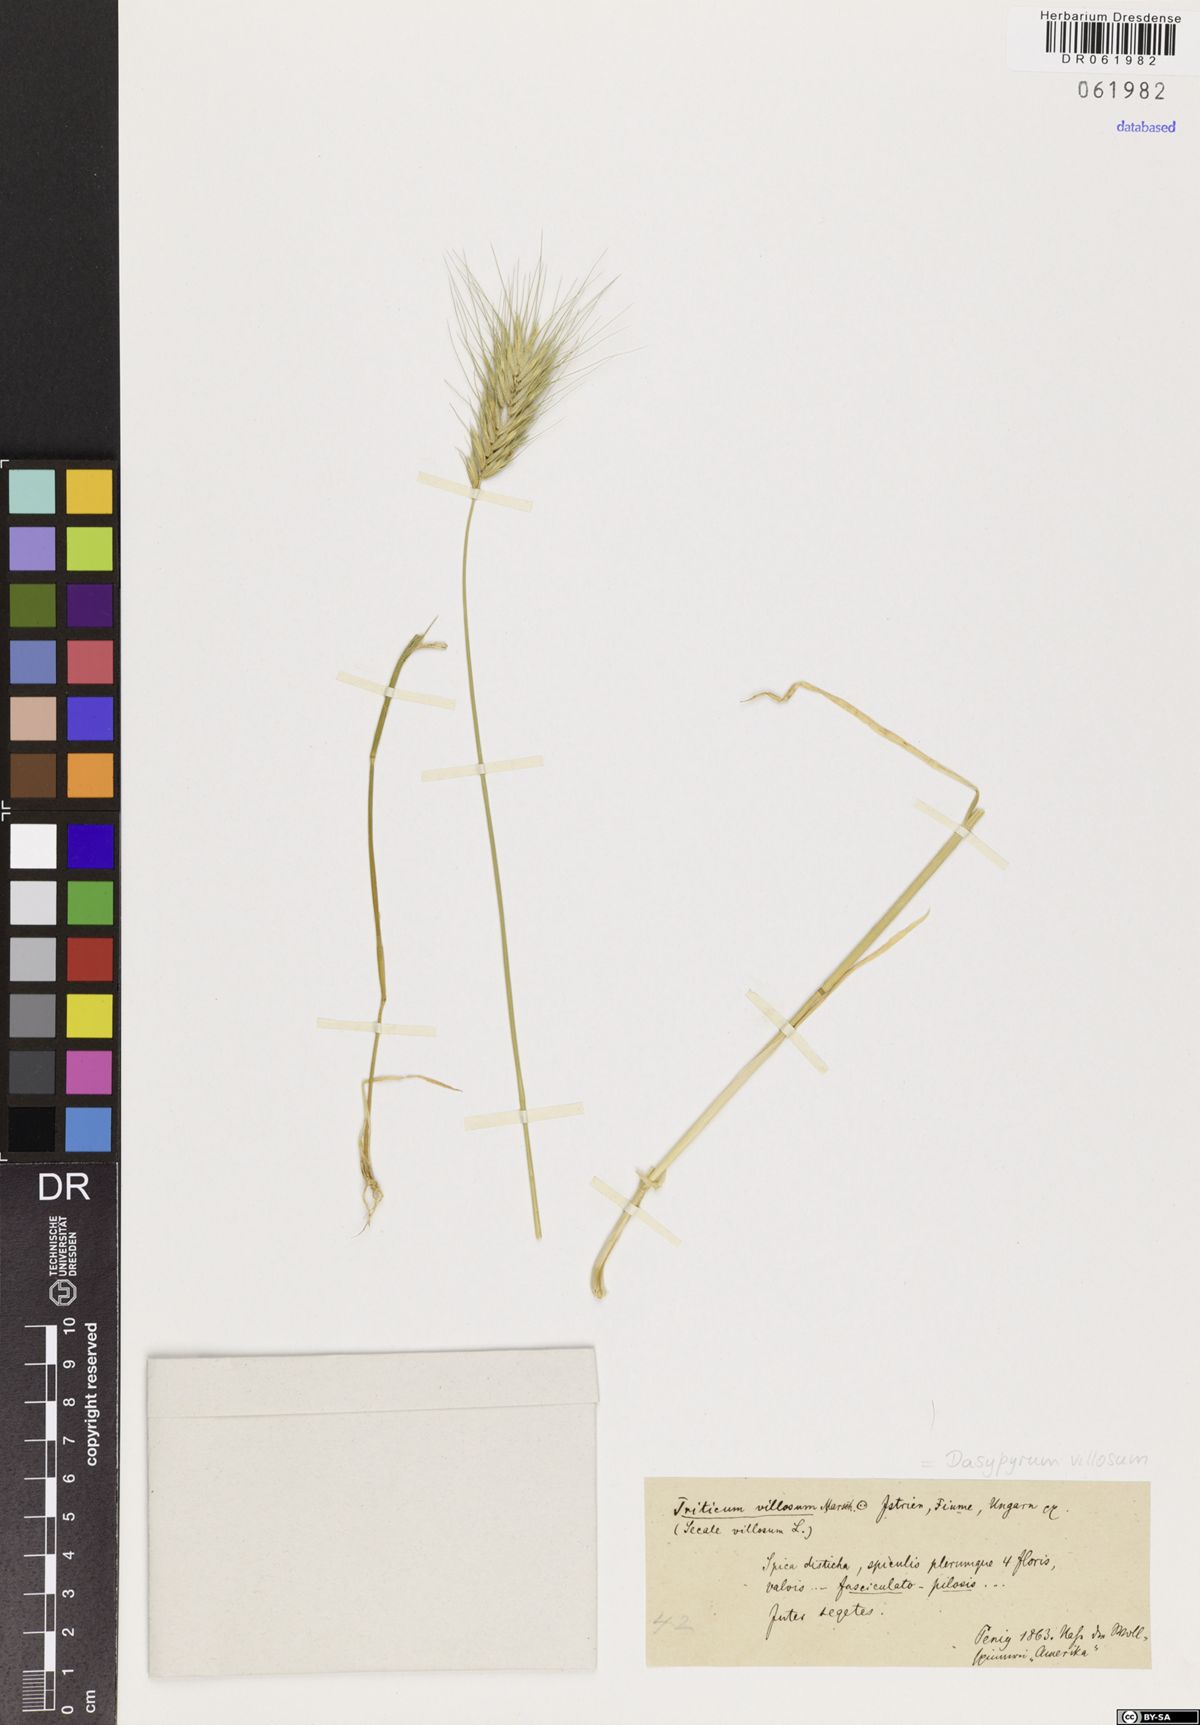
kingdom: Plantae
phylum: Tracheophyta
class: Liliopsida
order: Poales
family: Poaceae
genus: Dasypyrum
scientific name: Dasypyrum villosum
